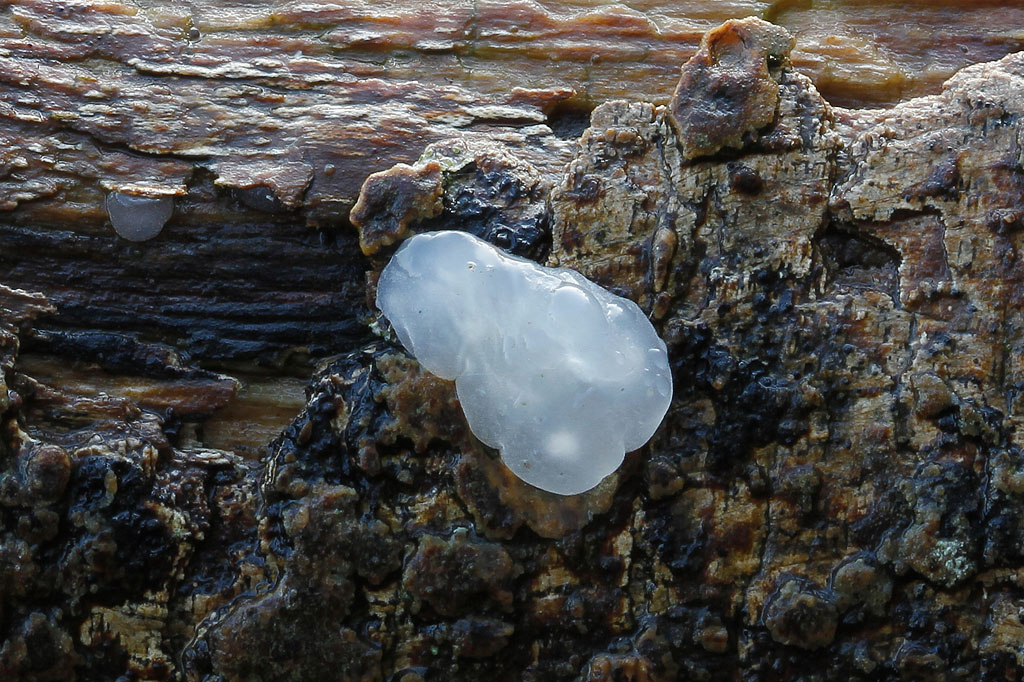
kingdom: Fungi
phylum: Basidiomycota
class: Agaricomycetes
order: Auriculariales
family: Hyaloriaceae
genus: Myxarium
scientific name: Myxarium nucleatum
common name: klar bævretop
